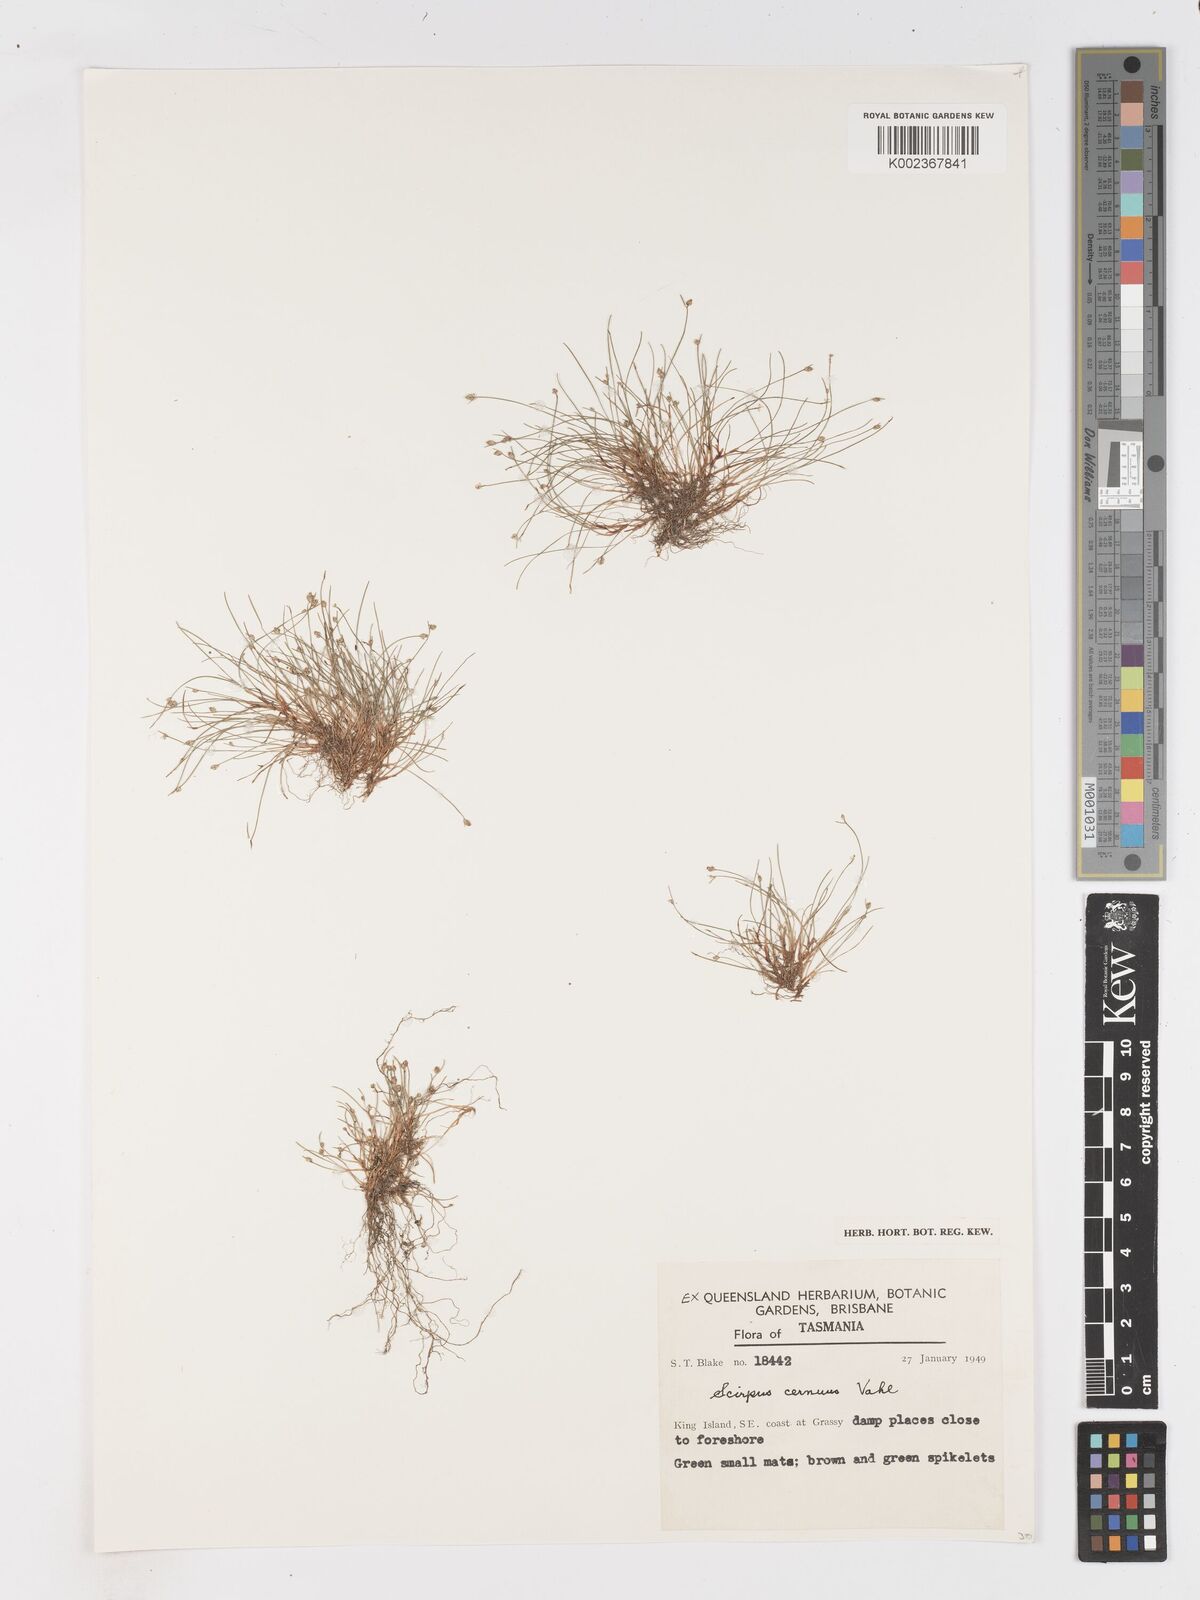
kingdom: Plantae
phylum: Tracheophyta
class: Liliopsida
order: Poales
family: Cyperaceae
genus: Isolepis
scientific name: Isolepis cernua
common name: Slender club-rush
